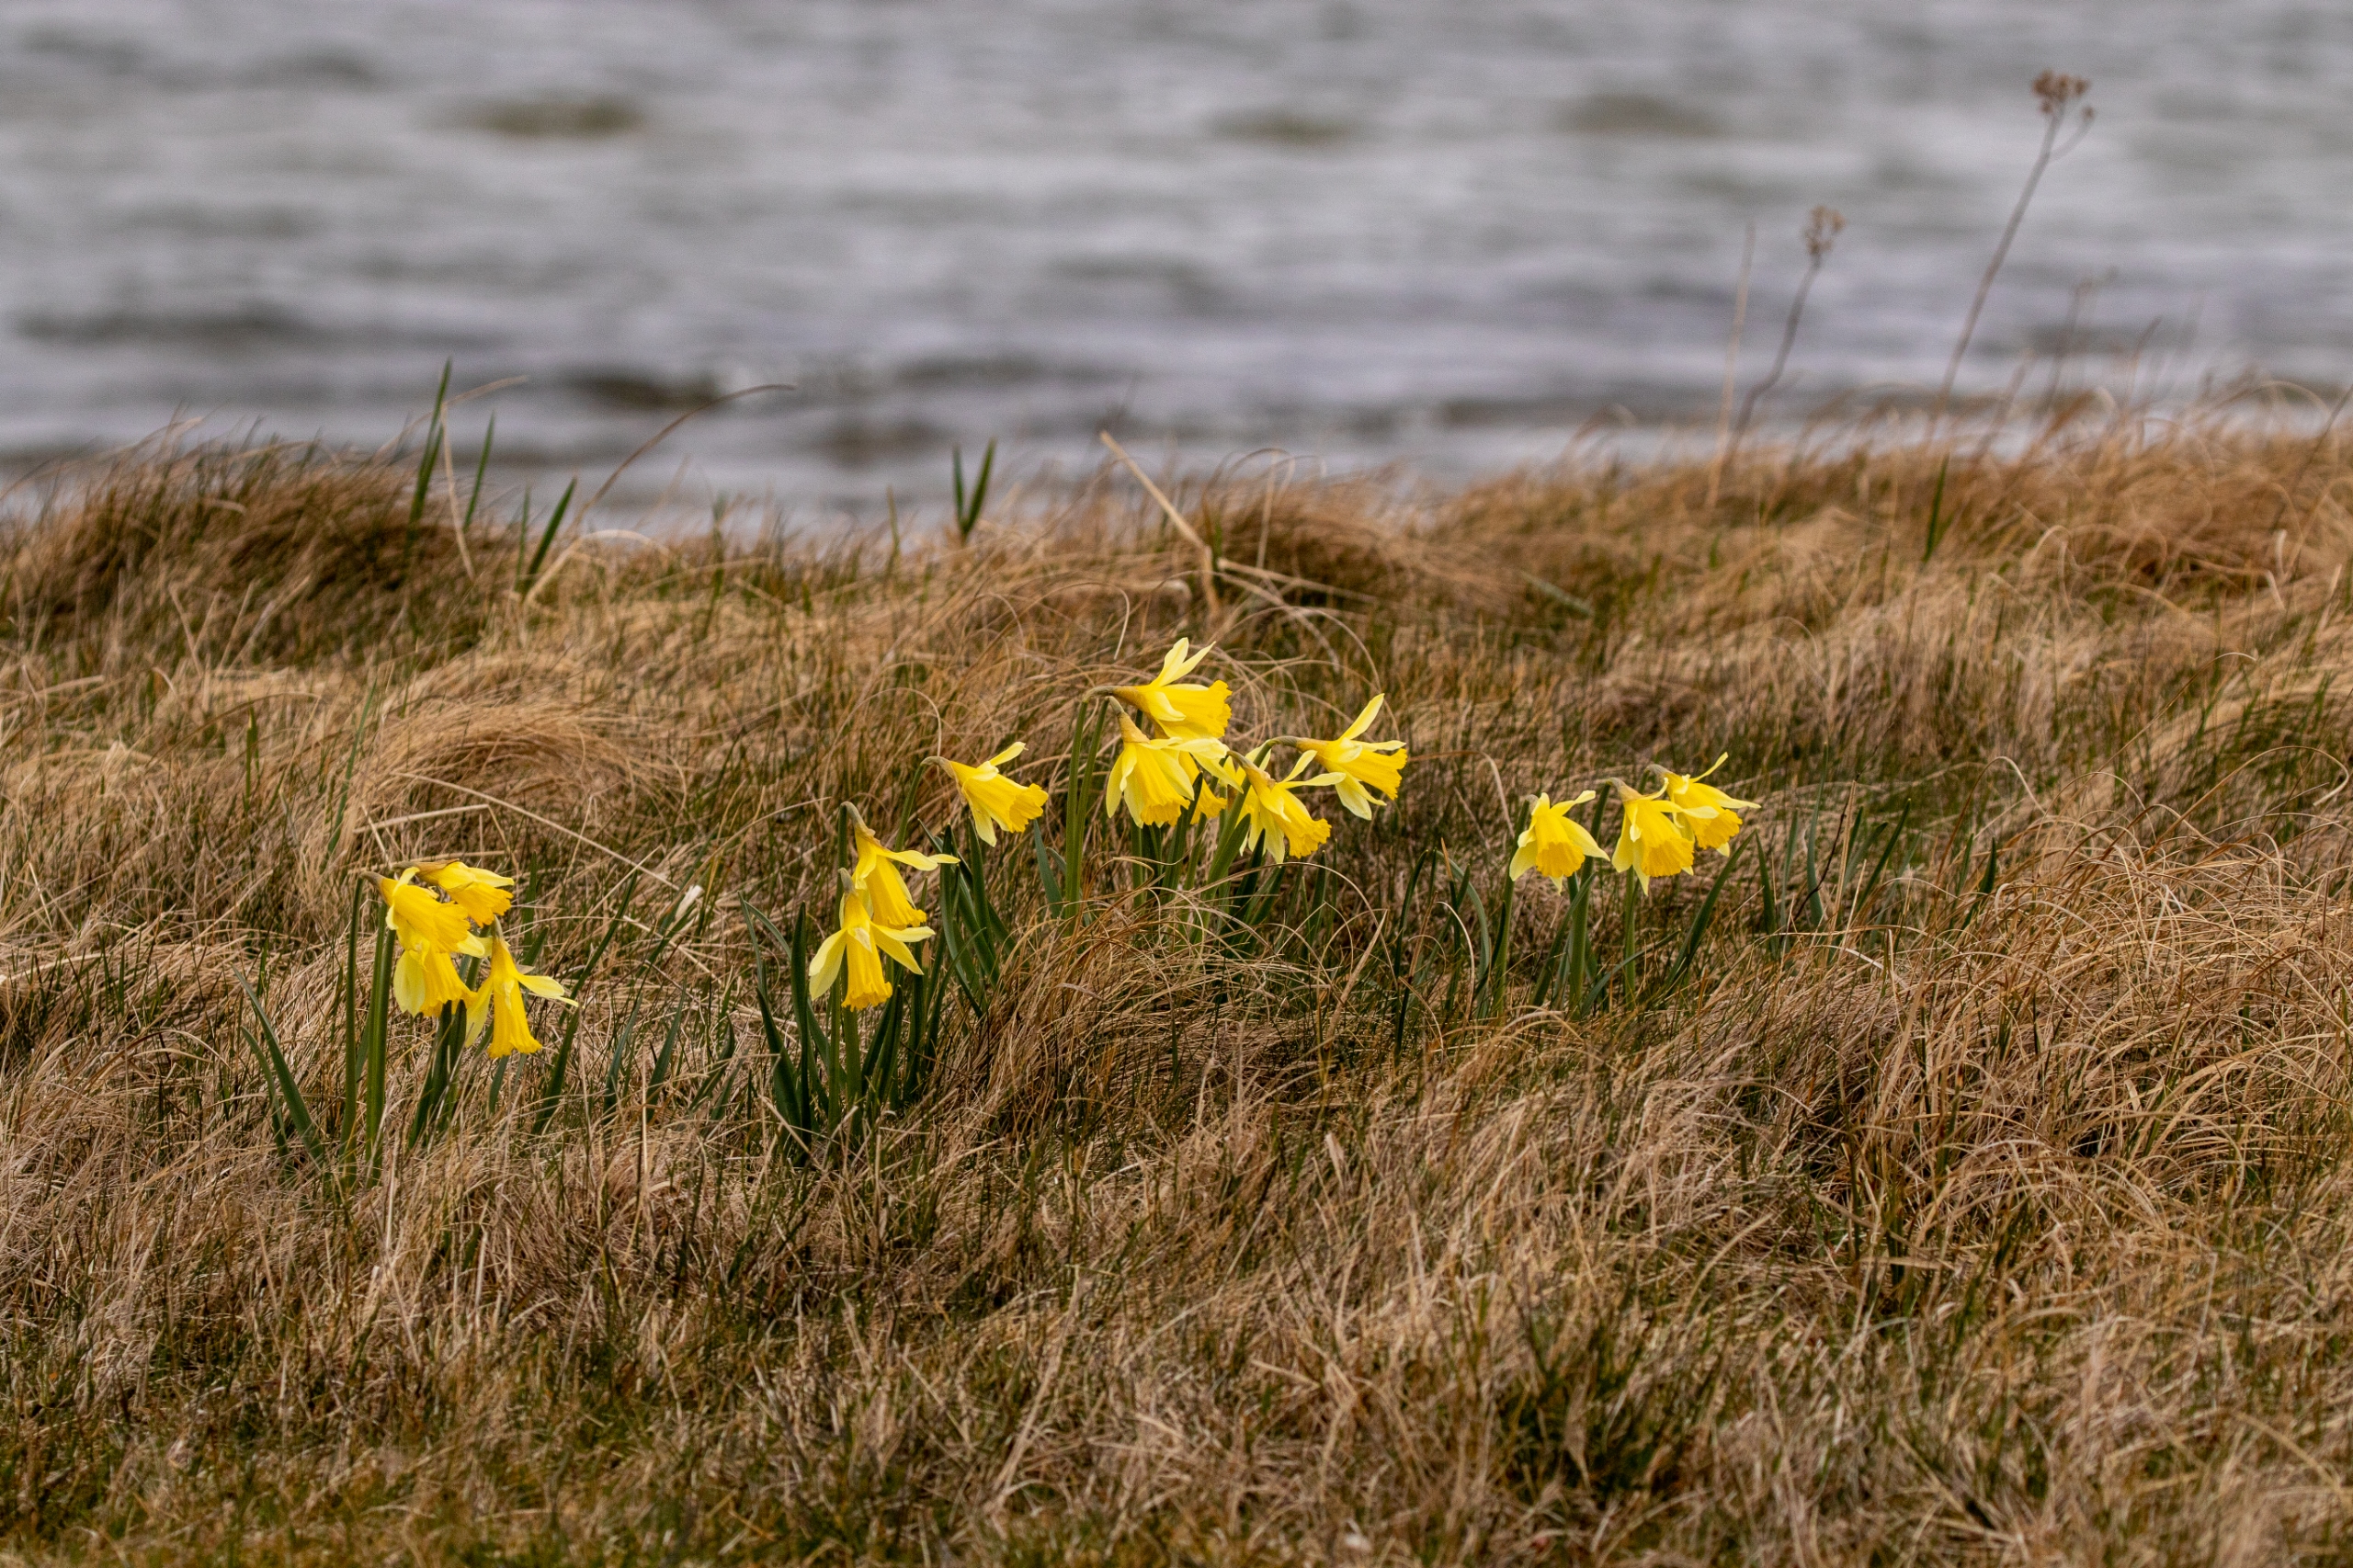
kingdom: Plantae
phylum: Tracheophyta
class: Liliopsida
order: Asparagales
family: Amaryllidaceae
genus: Narcissus
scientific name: Narcissus pseudonarcissus
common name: Påskelilje
